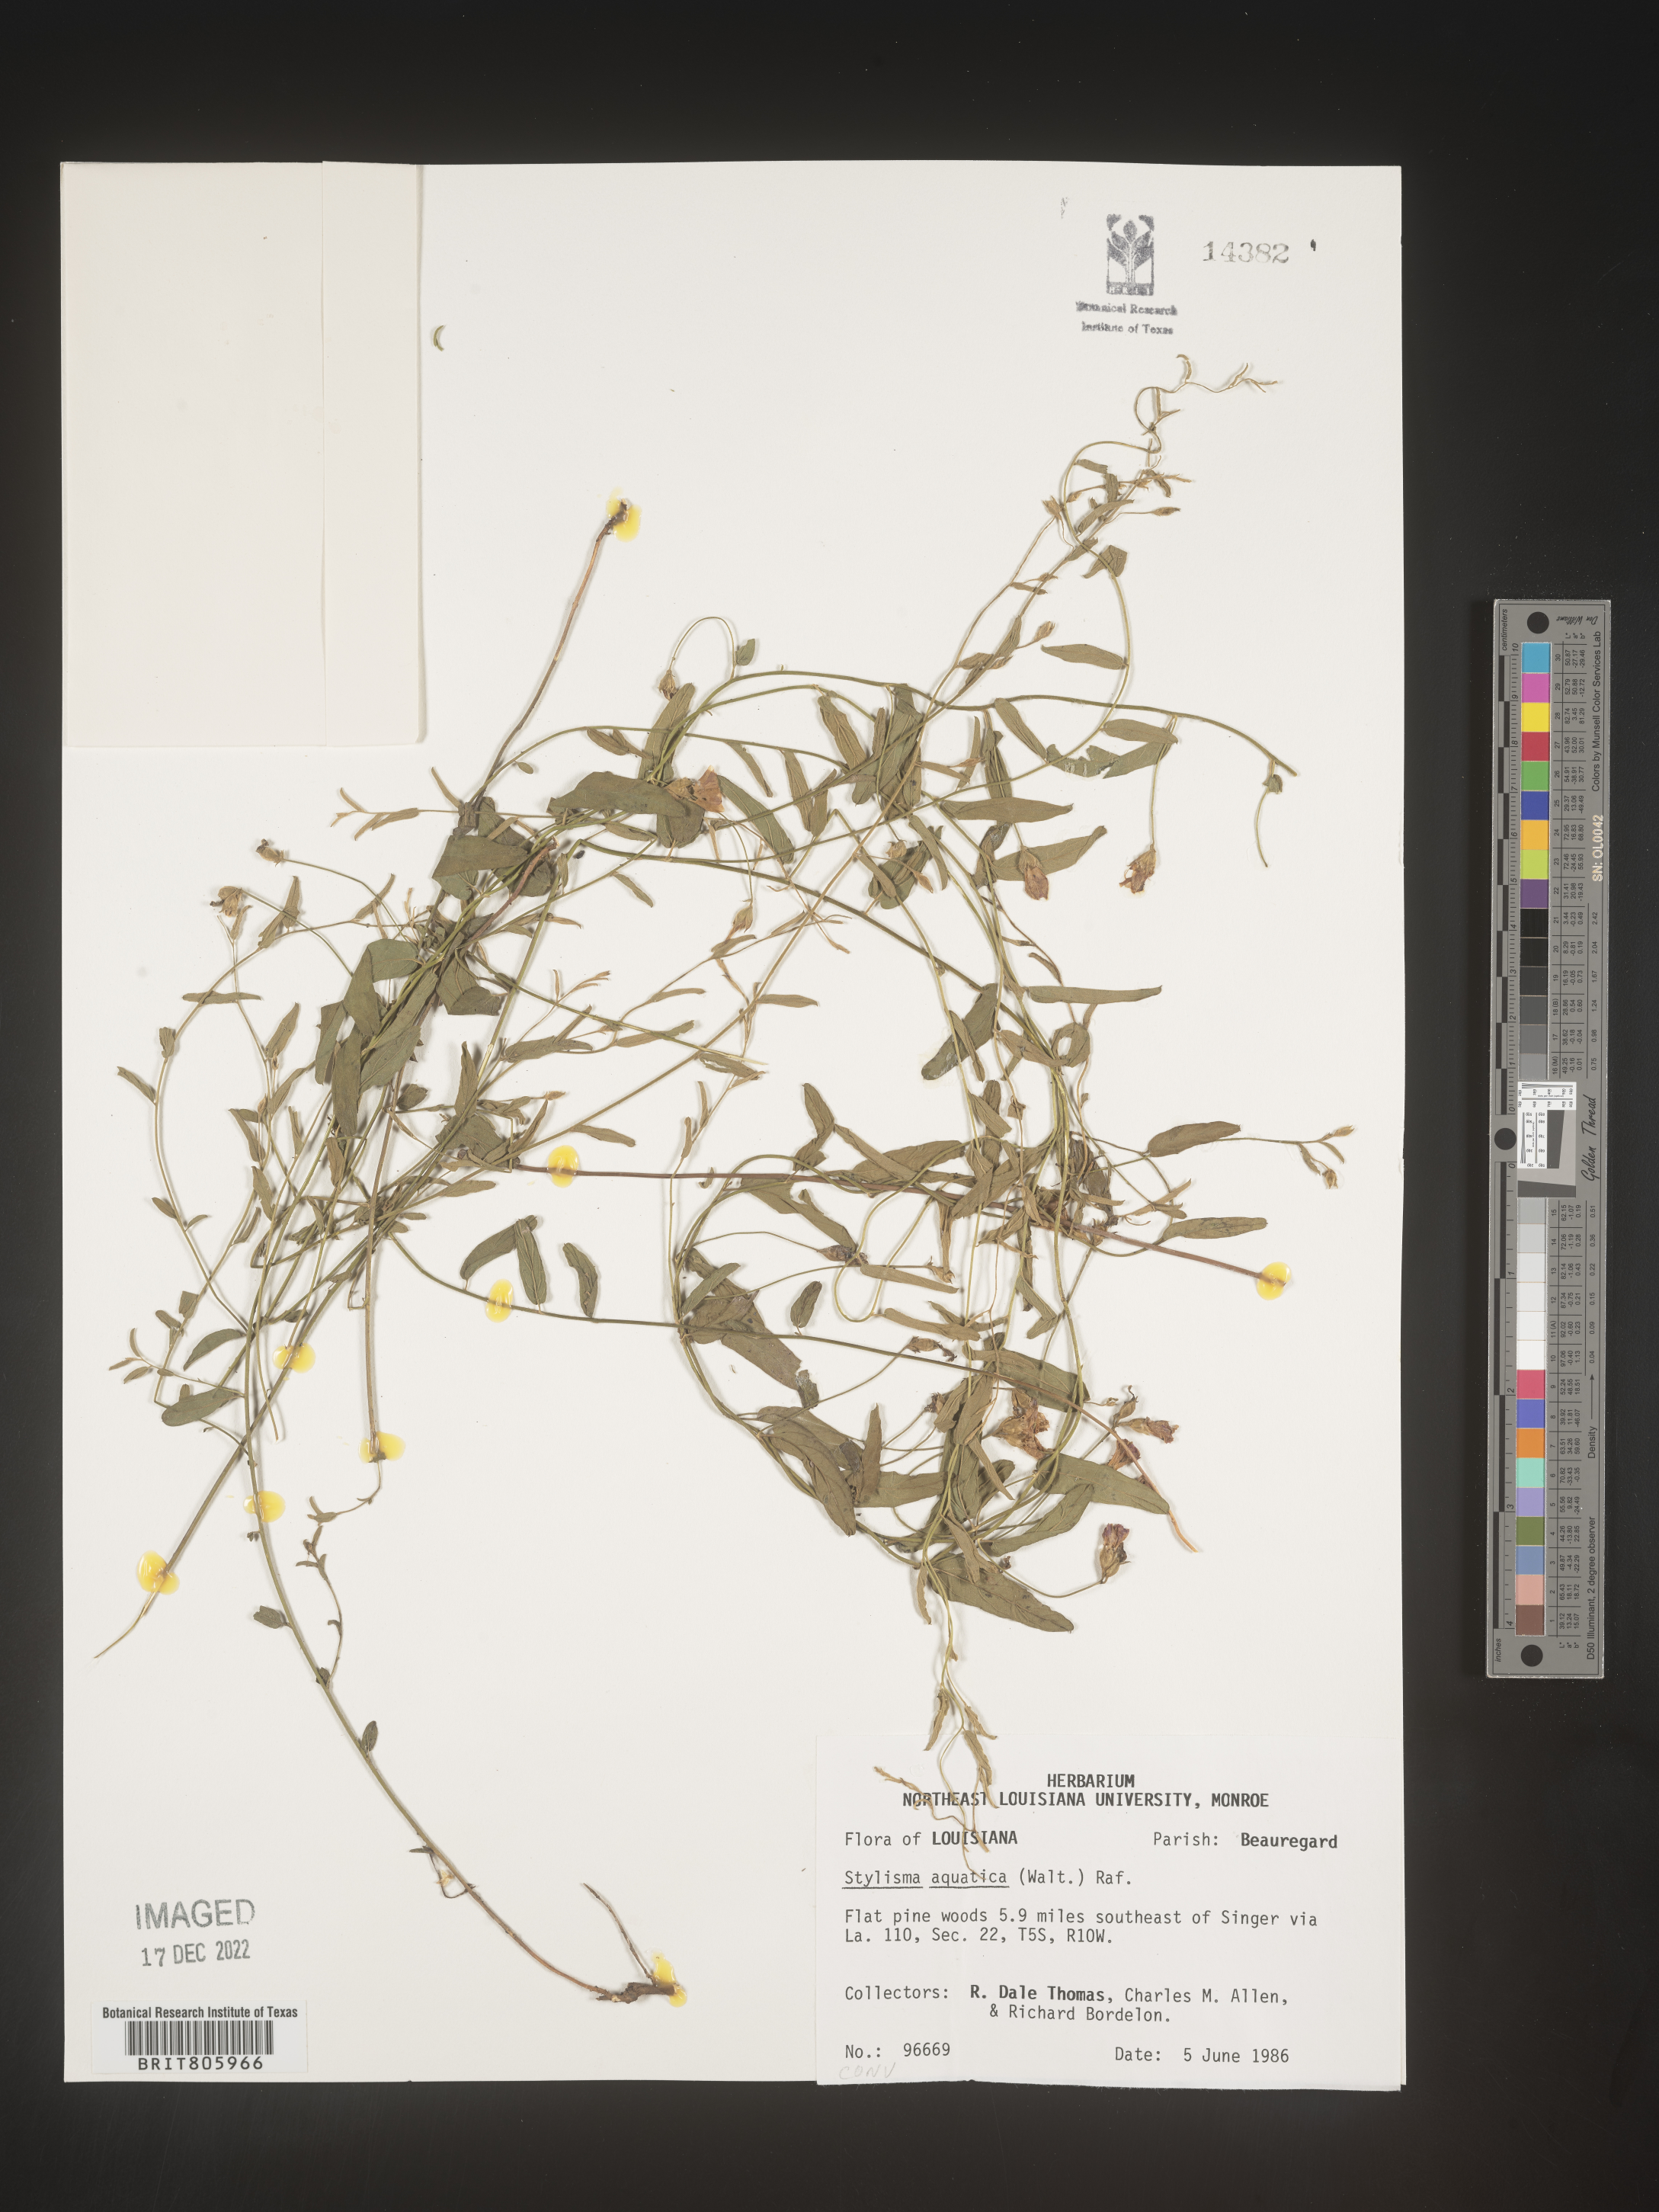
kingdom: Plantae
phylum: Tracheophyta
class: Magnoliopsida
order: Solanales
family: Convolvulaceae
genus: Stylisma
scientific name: Stylisma
